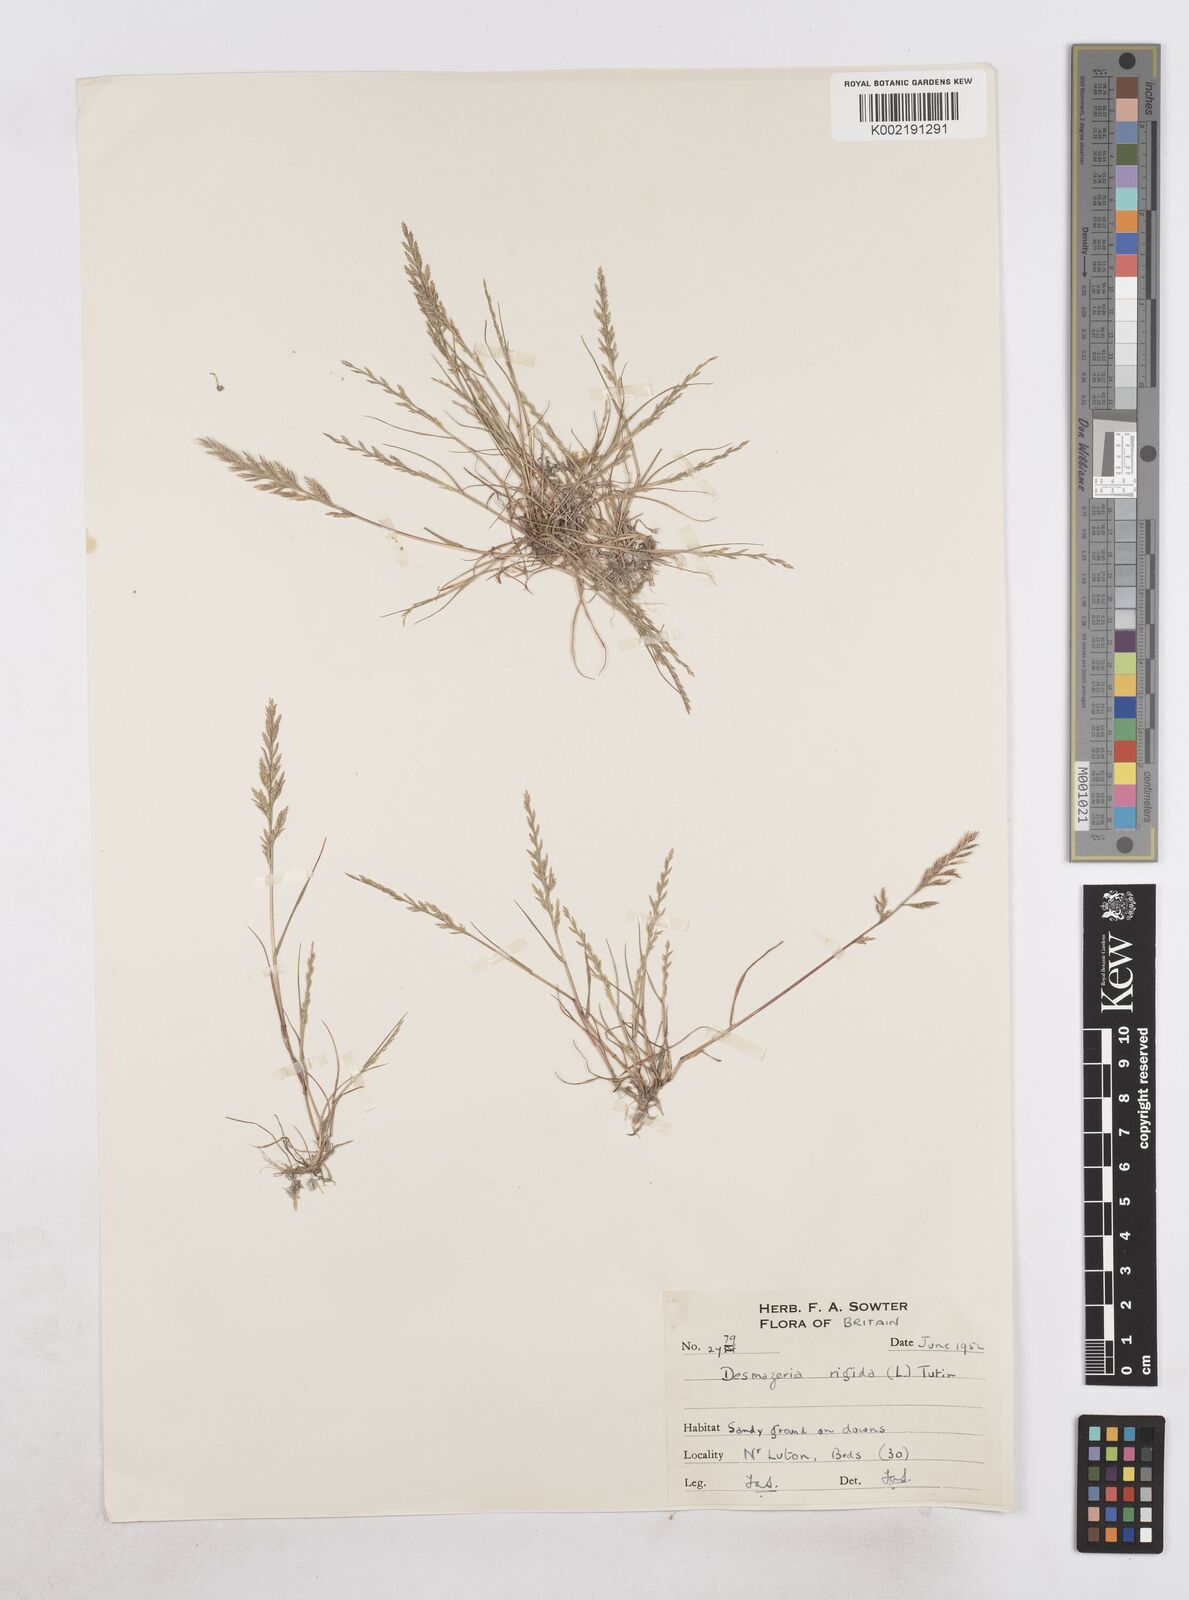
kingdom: Plantae
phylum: Tracheophyta
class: Liliopsida
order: Poales
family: Poaceae
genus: Catapodium
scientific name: Catapodium rigidum
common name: Fern-grass
